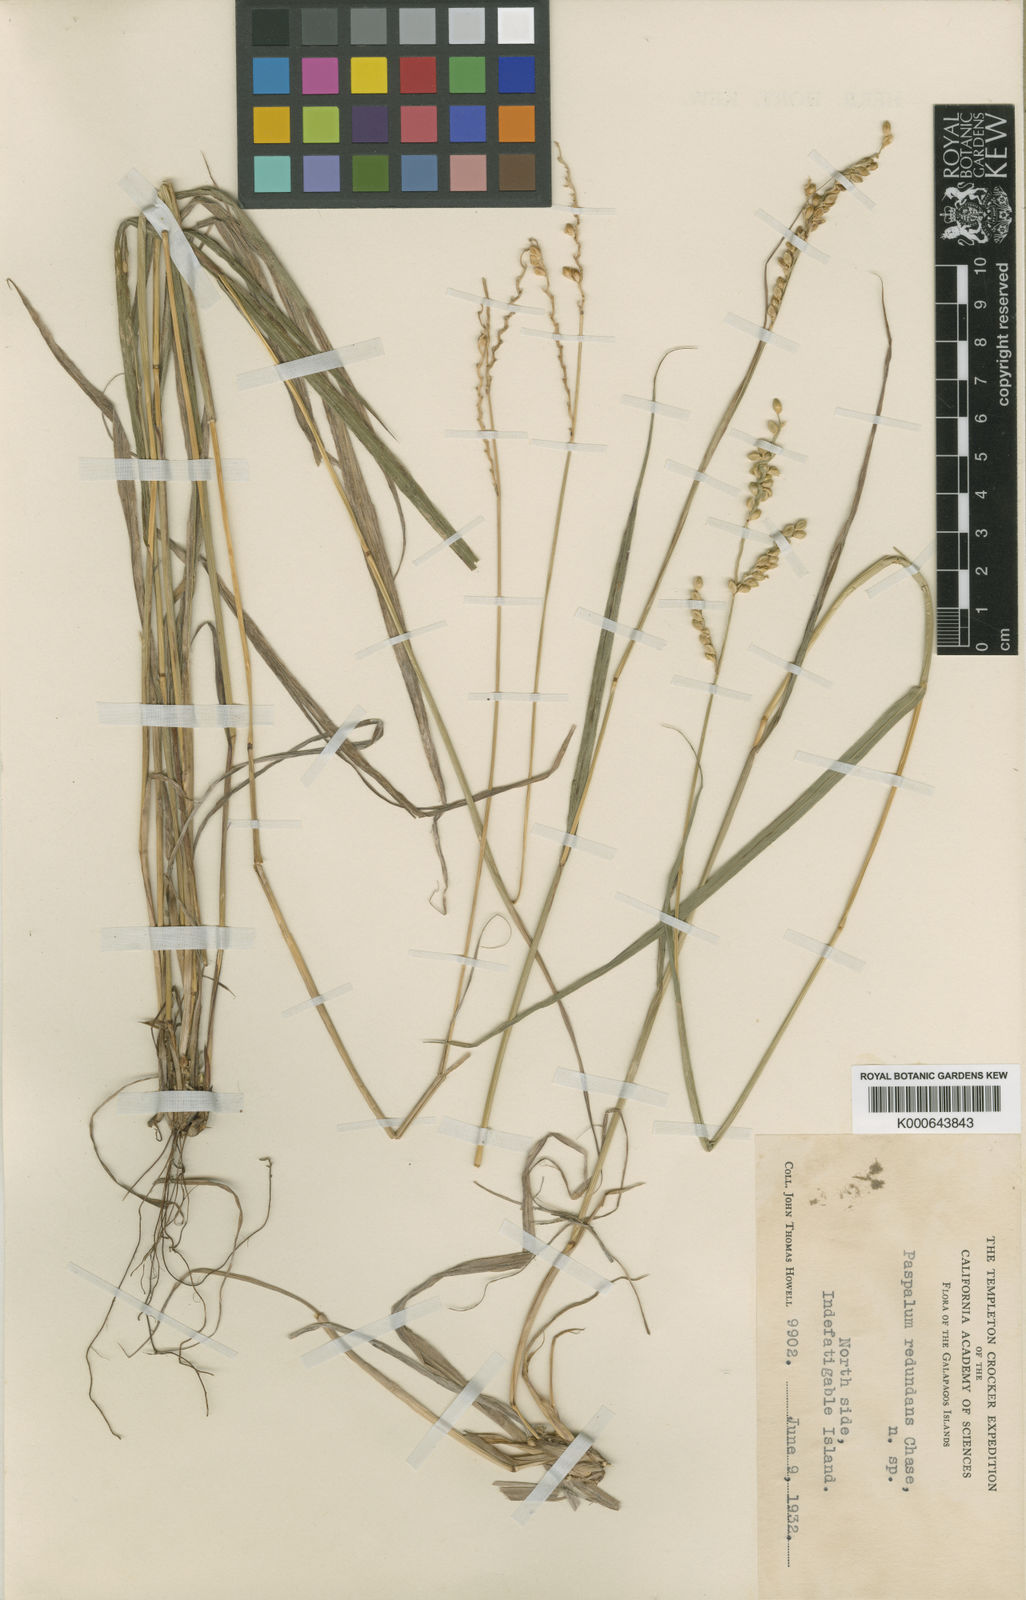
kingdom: Plantae
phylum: Tracheophyta
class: Liliopsida
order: Poales
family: Poaceae
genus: Paspalum
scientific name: Paspalum redundans
